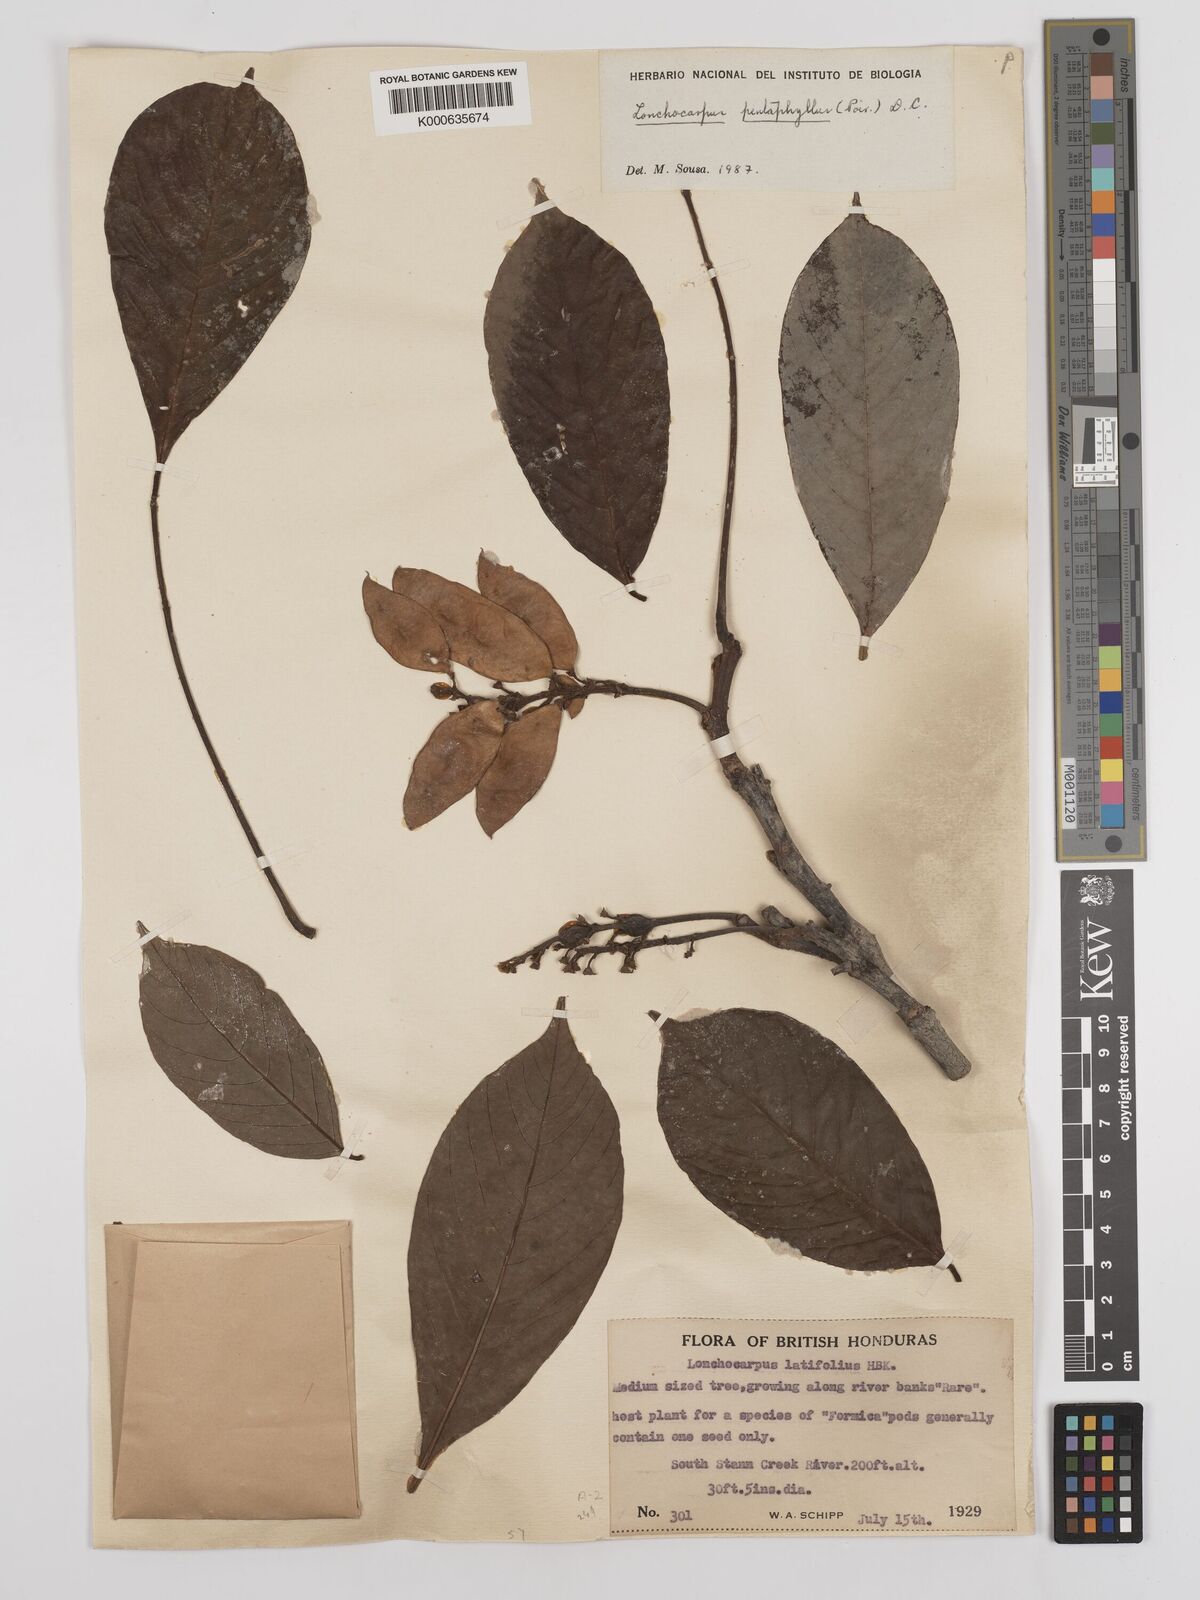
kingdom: Plantae
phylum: Tracheophyta
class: Magnoliopsida
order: Fabales
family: Fabaceae
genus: Lonchocarpus
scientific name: Lonchocarpus
